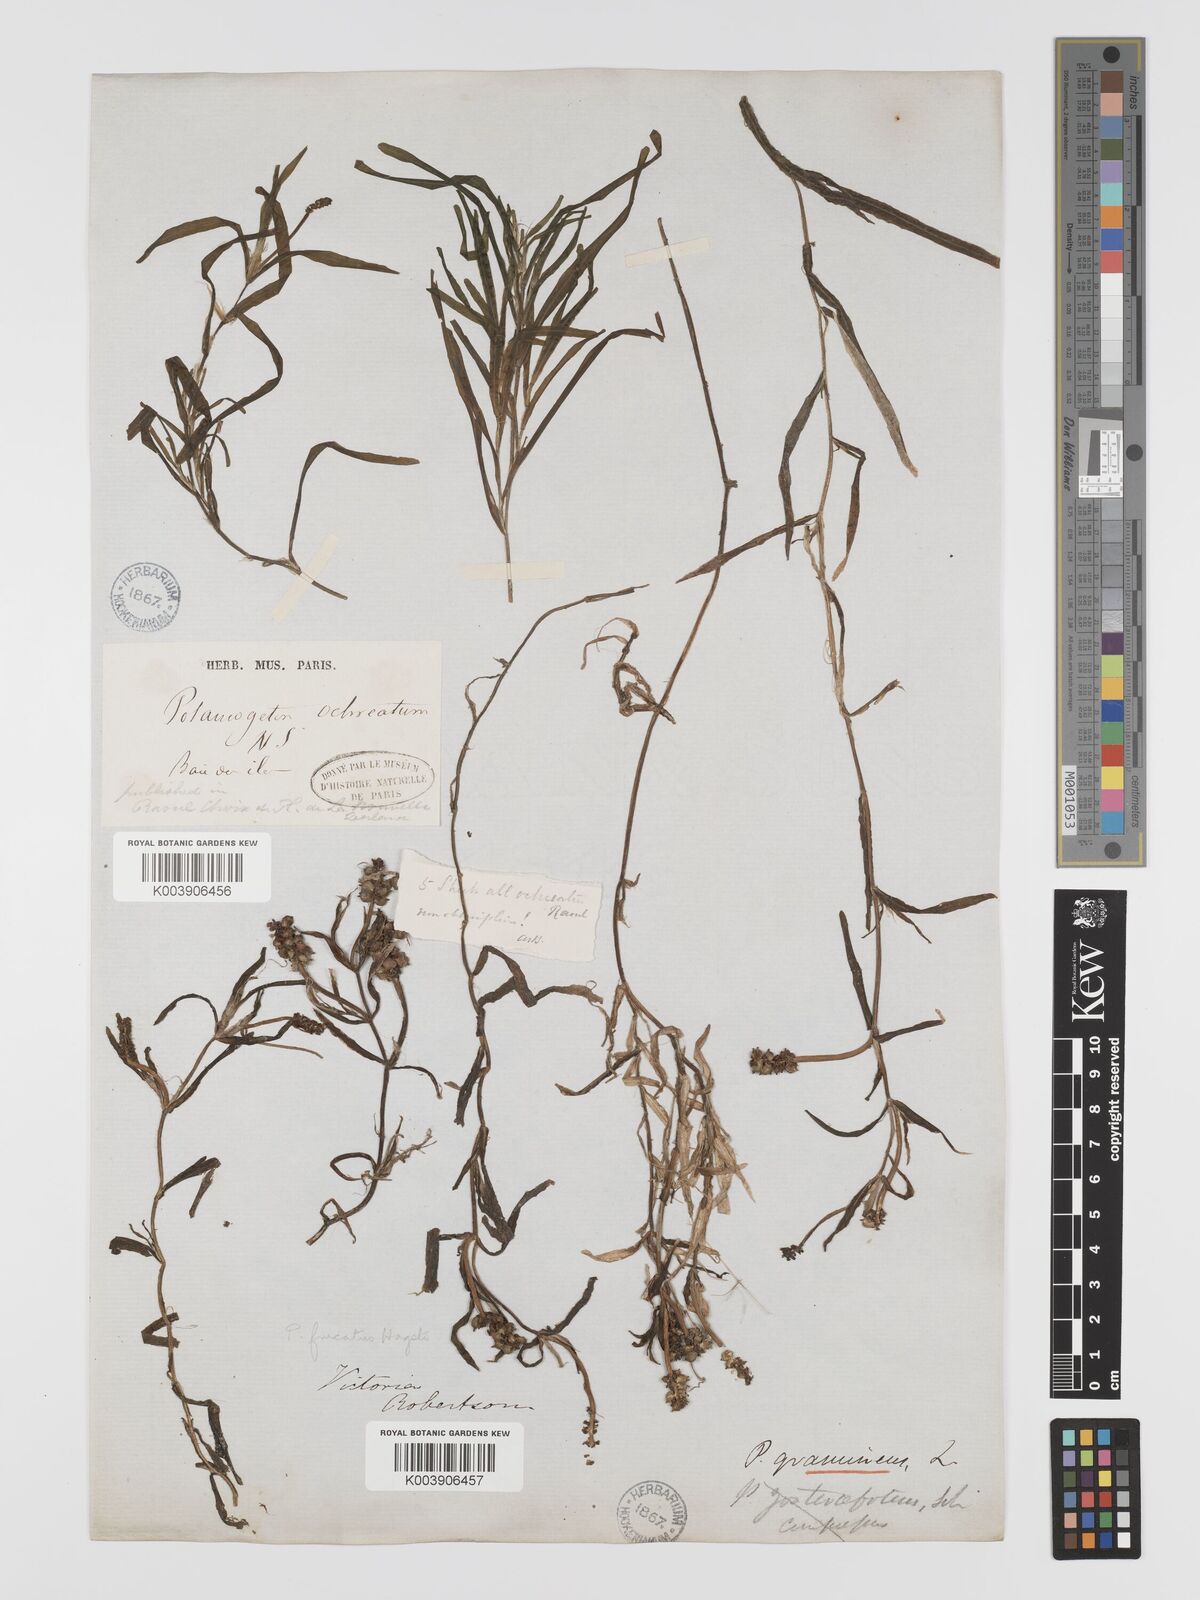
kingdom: Plantae
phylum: Tracheophyta
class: Liliopsida
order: Alismatales
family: Potamogetonaceae
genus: Potamogeton
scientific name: Potamogeton ochreatus
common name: Blunt pondweed
